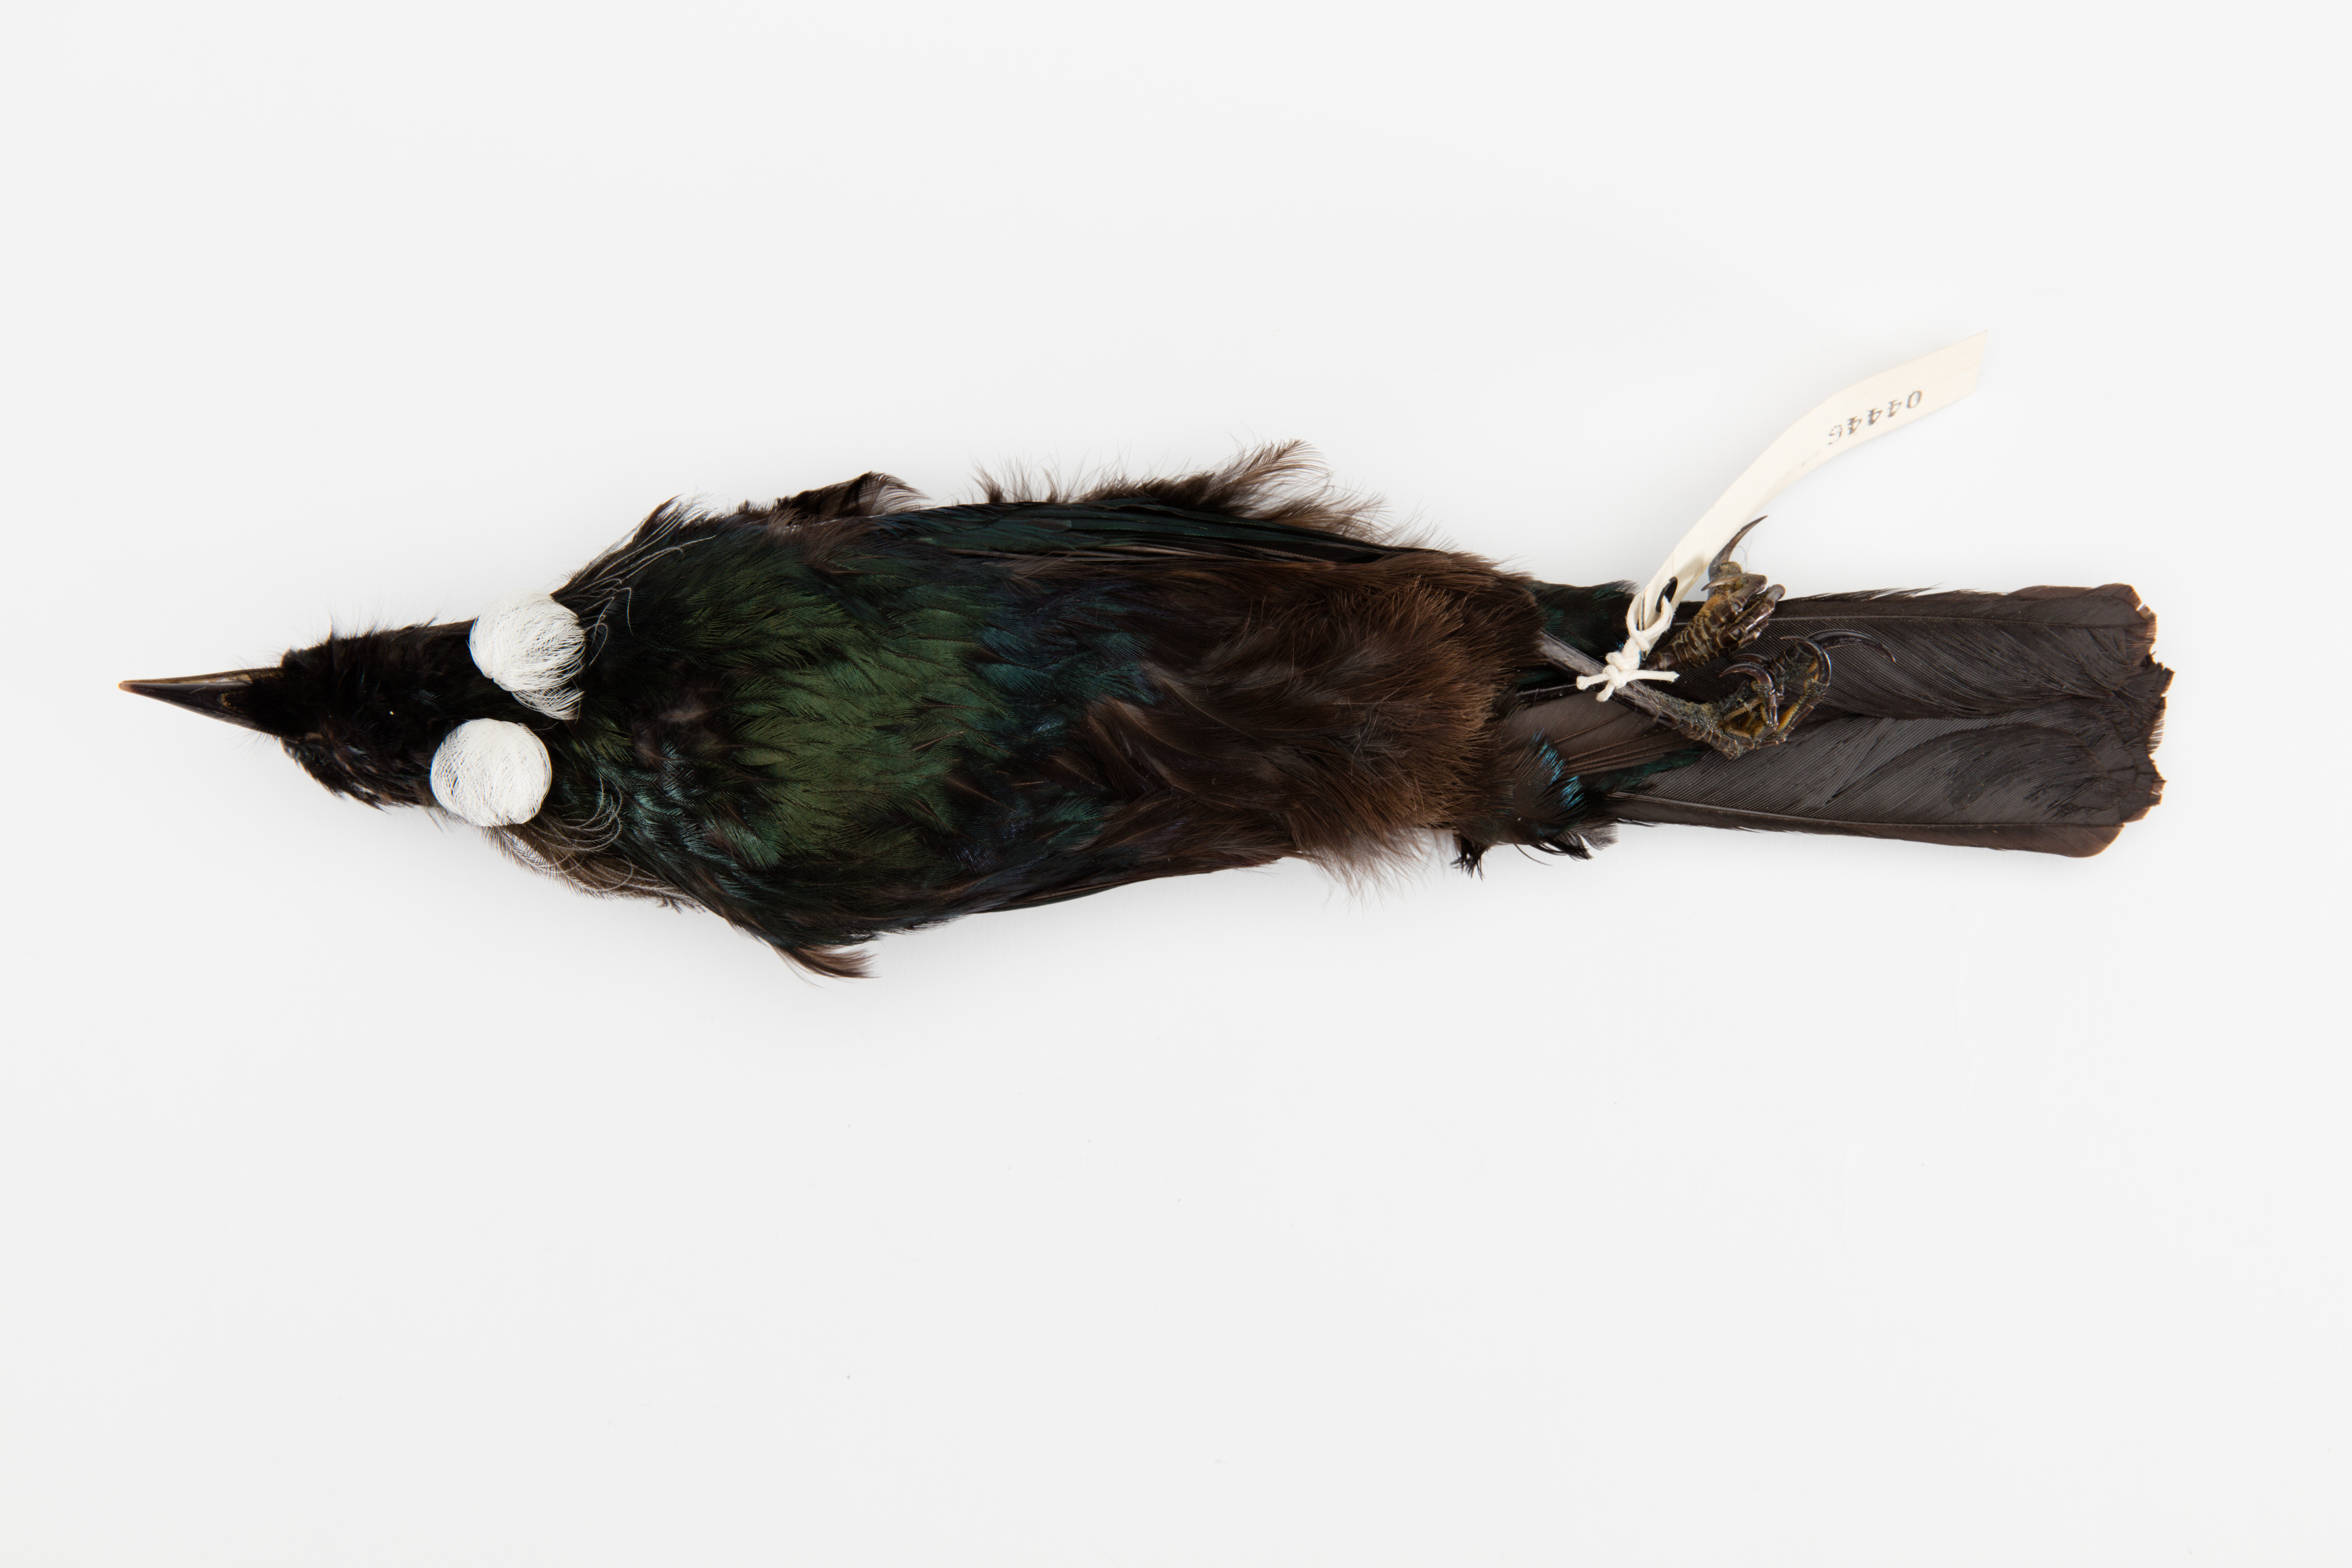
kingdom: Animalia
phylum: Chordata
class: Aves
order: Passeriformes
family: Meliphagidae
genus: Prosthemadera
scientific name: Prosthemadera novaeseelandiae
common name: Tui
